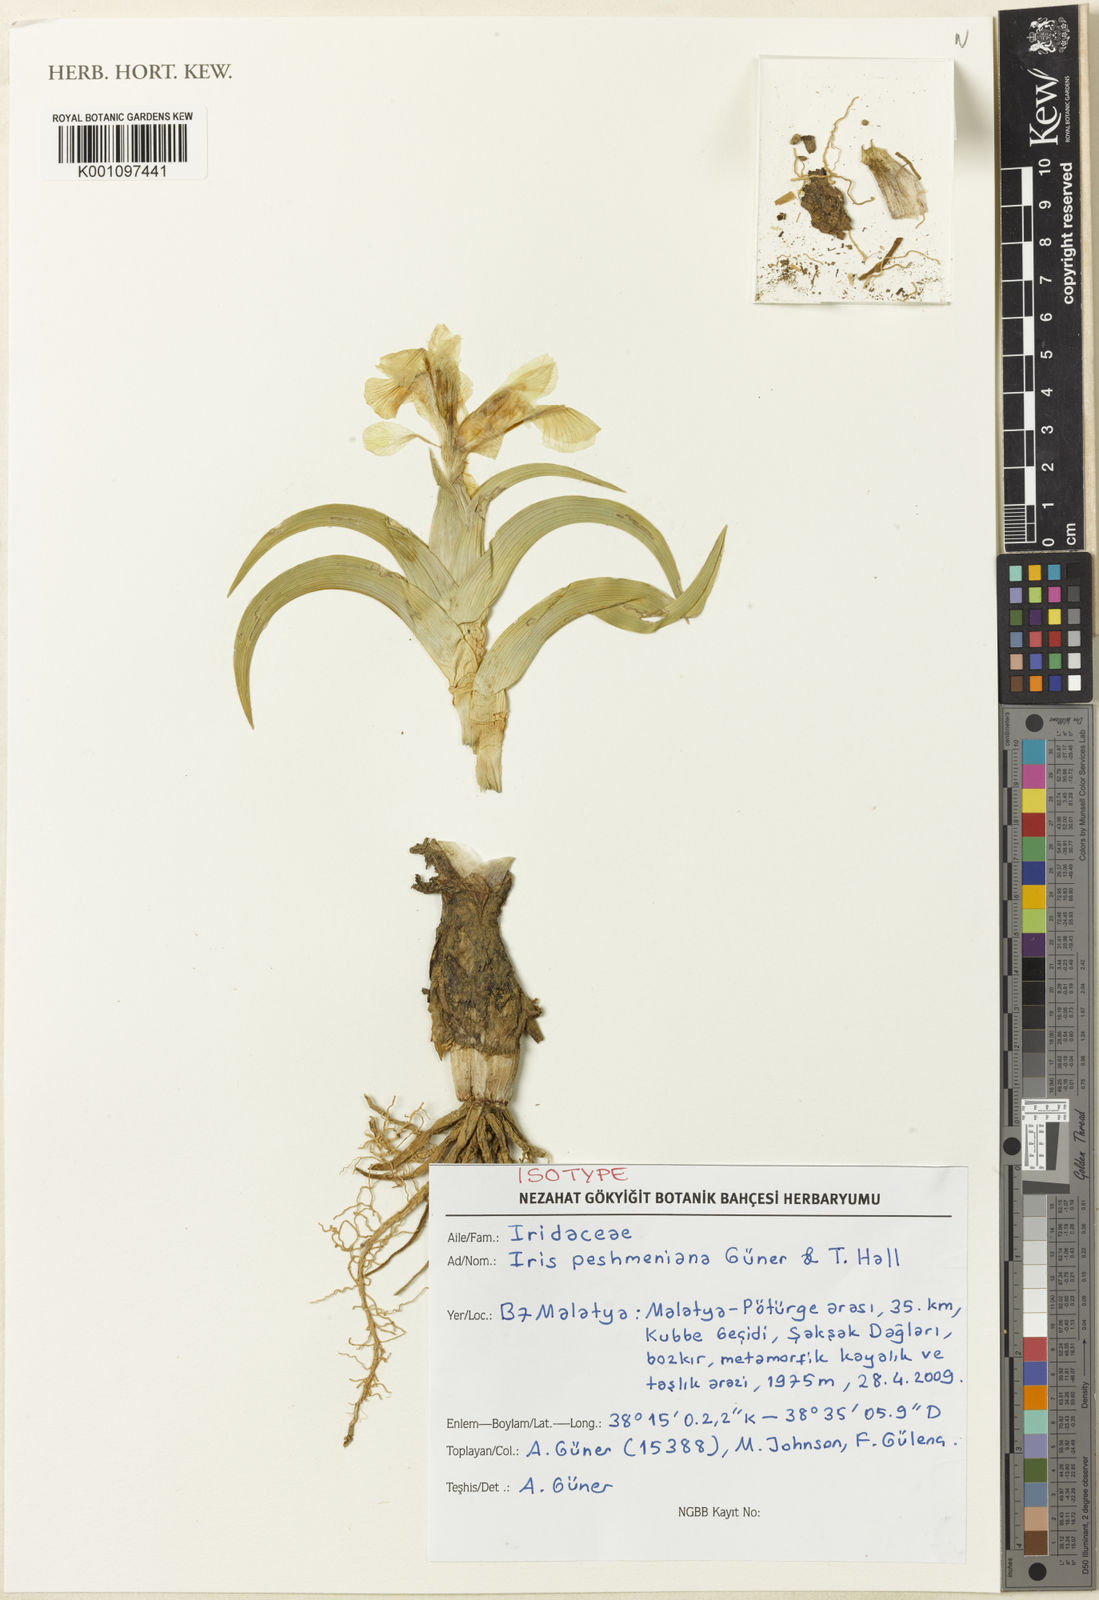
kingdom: Plantae
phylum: Tracheophyta
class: Liliopsida
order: Asparagales
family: Iridaceae
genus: Iris
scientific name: Iris
